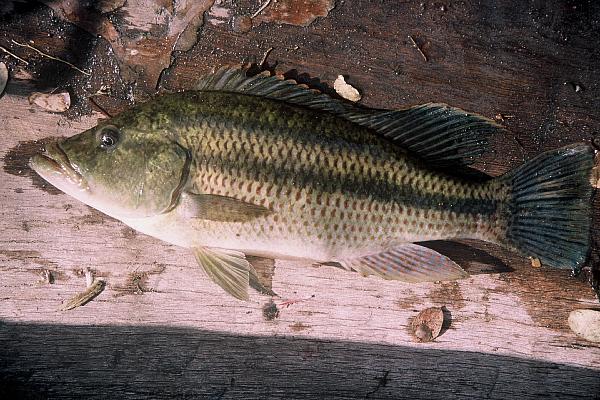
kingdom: Animalia
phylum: Chordata
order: Perciformes
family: Cichlidae
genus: Serranochromis
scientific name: Serranochromis thumbergi
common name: Brownspot largemouth
